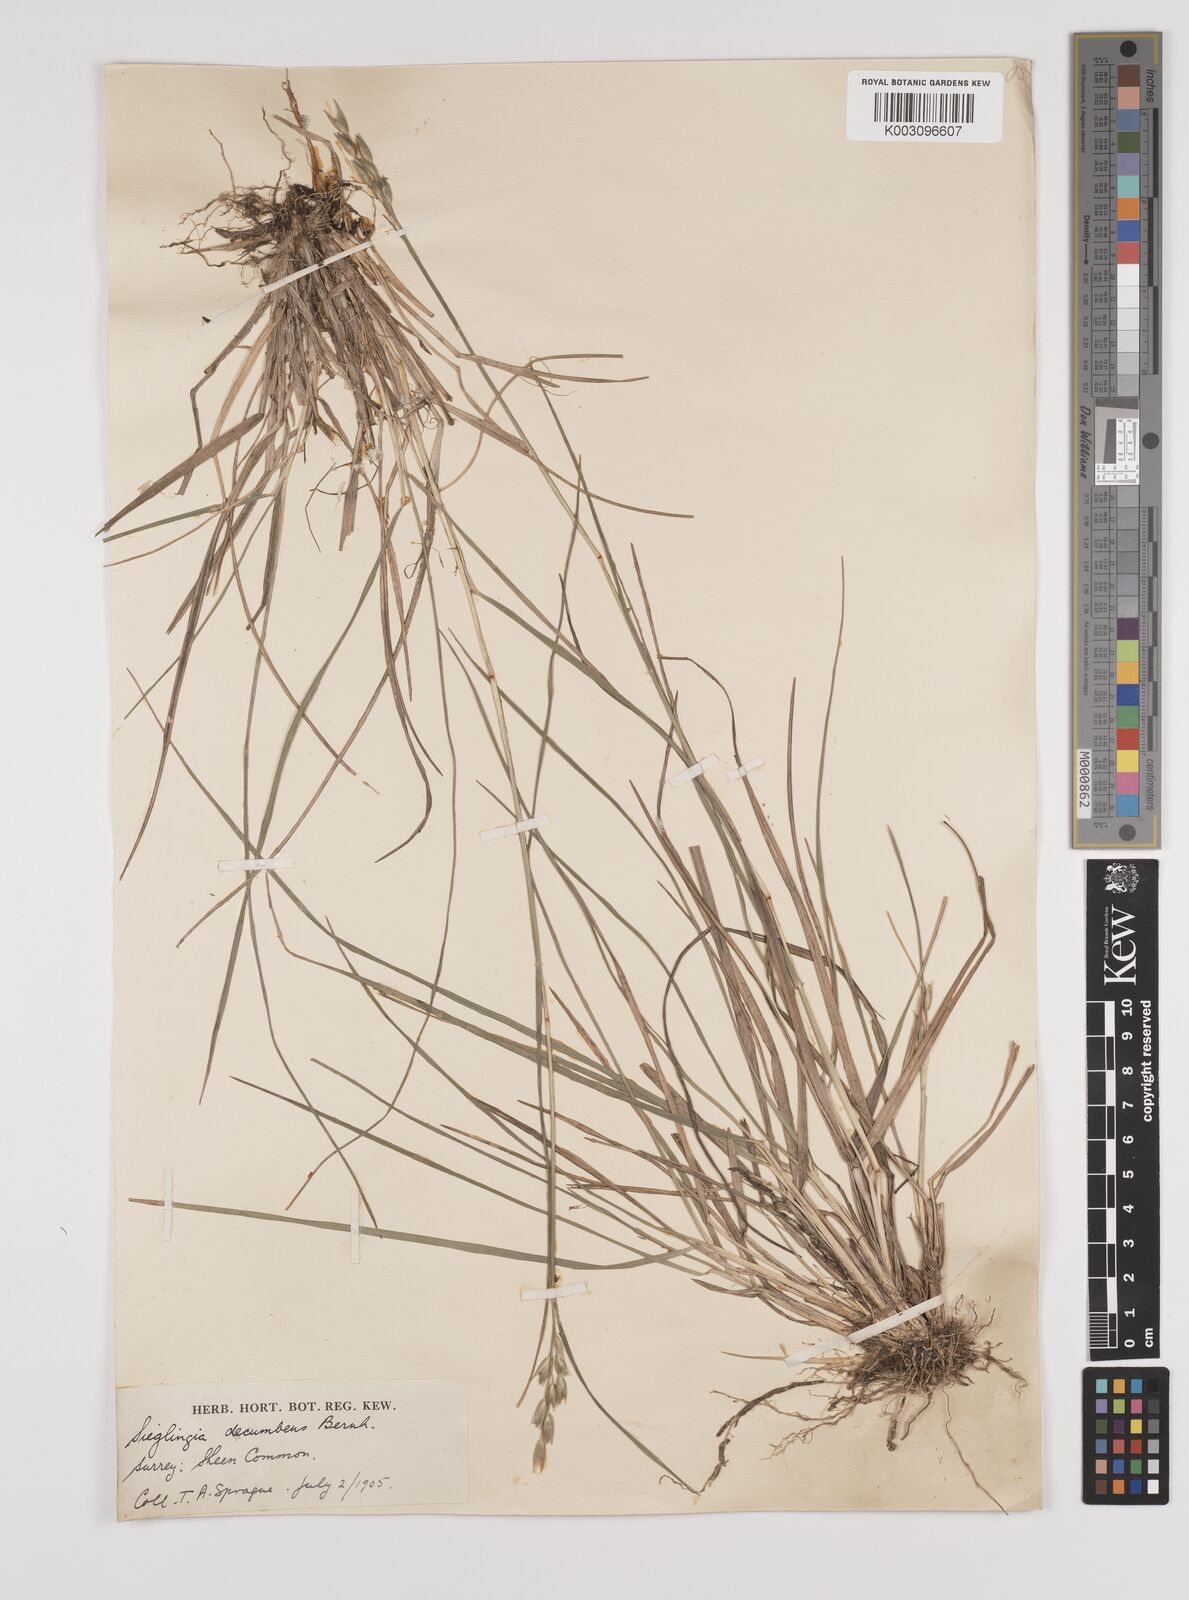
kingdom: Plantae
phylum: Tracheophyta
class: Liliopsida
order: Poales
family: Poaceae
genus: Danthonia
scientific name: Danthonia decumbens
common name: Common heathgrass
